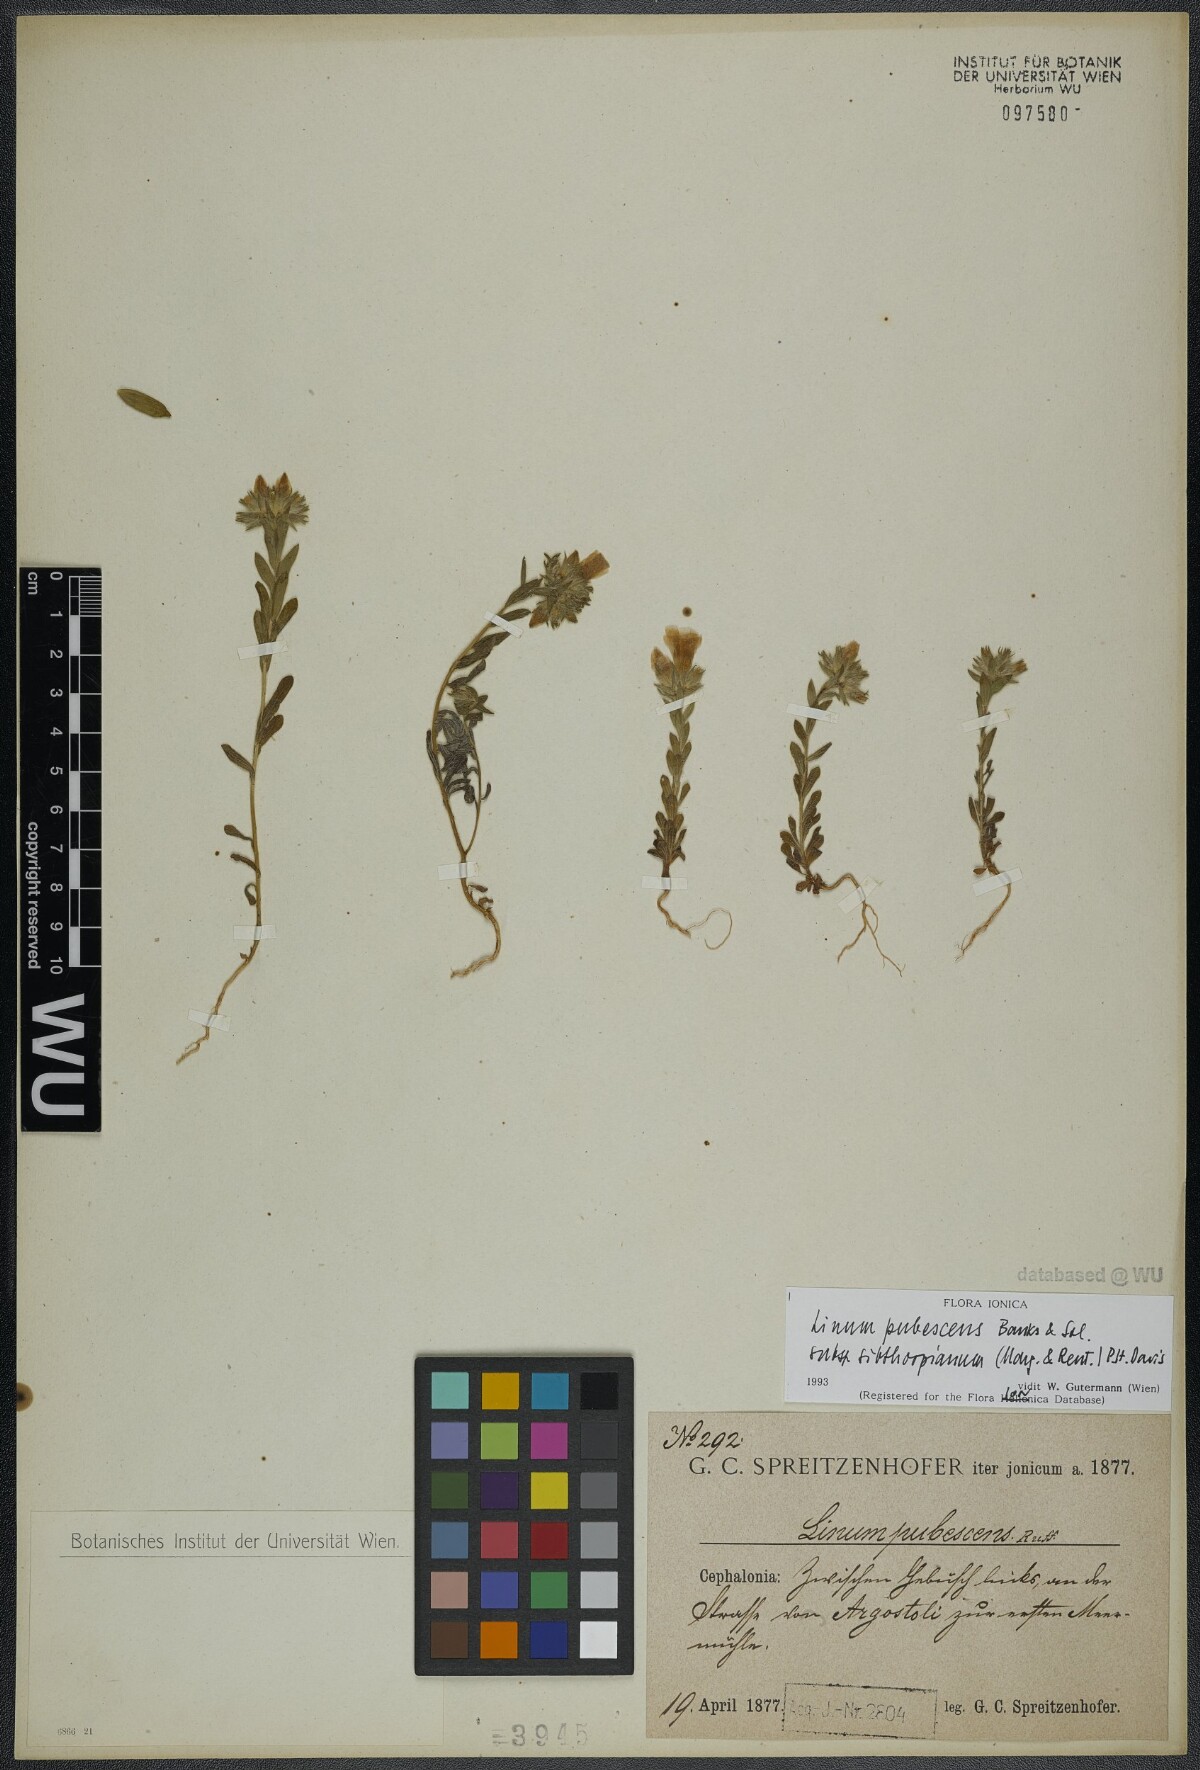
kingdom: Plantae
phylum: Tracheophyta
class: Magnoliopsida
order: Malpighiales
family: Linaceae
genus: Linum
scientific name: Linum pubescens
